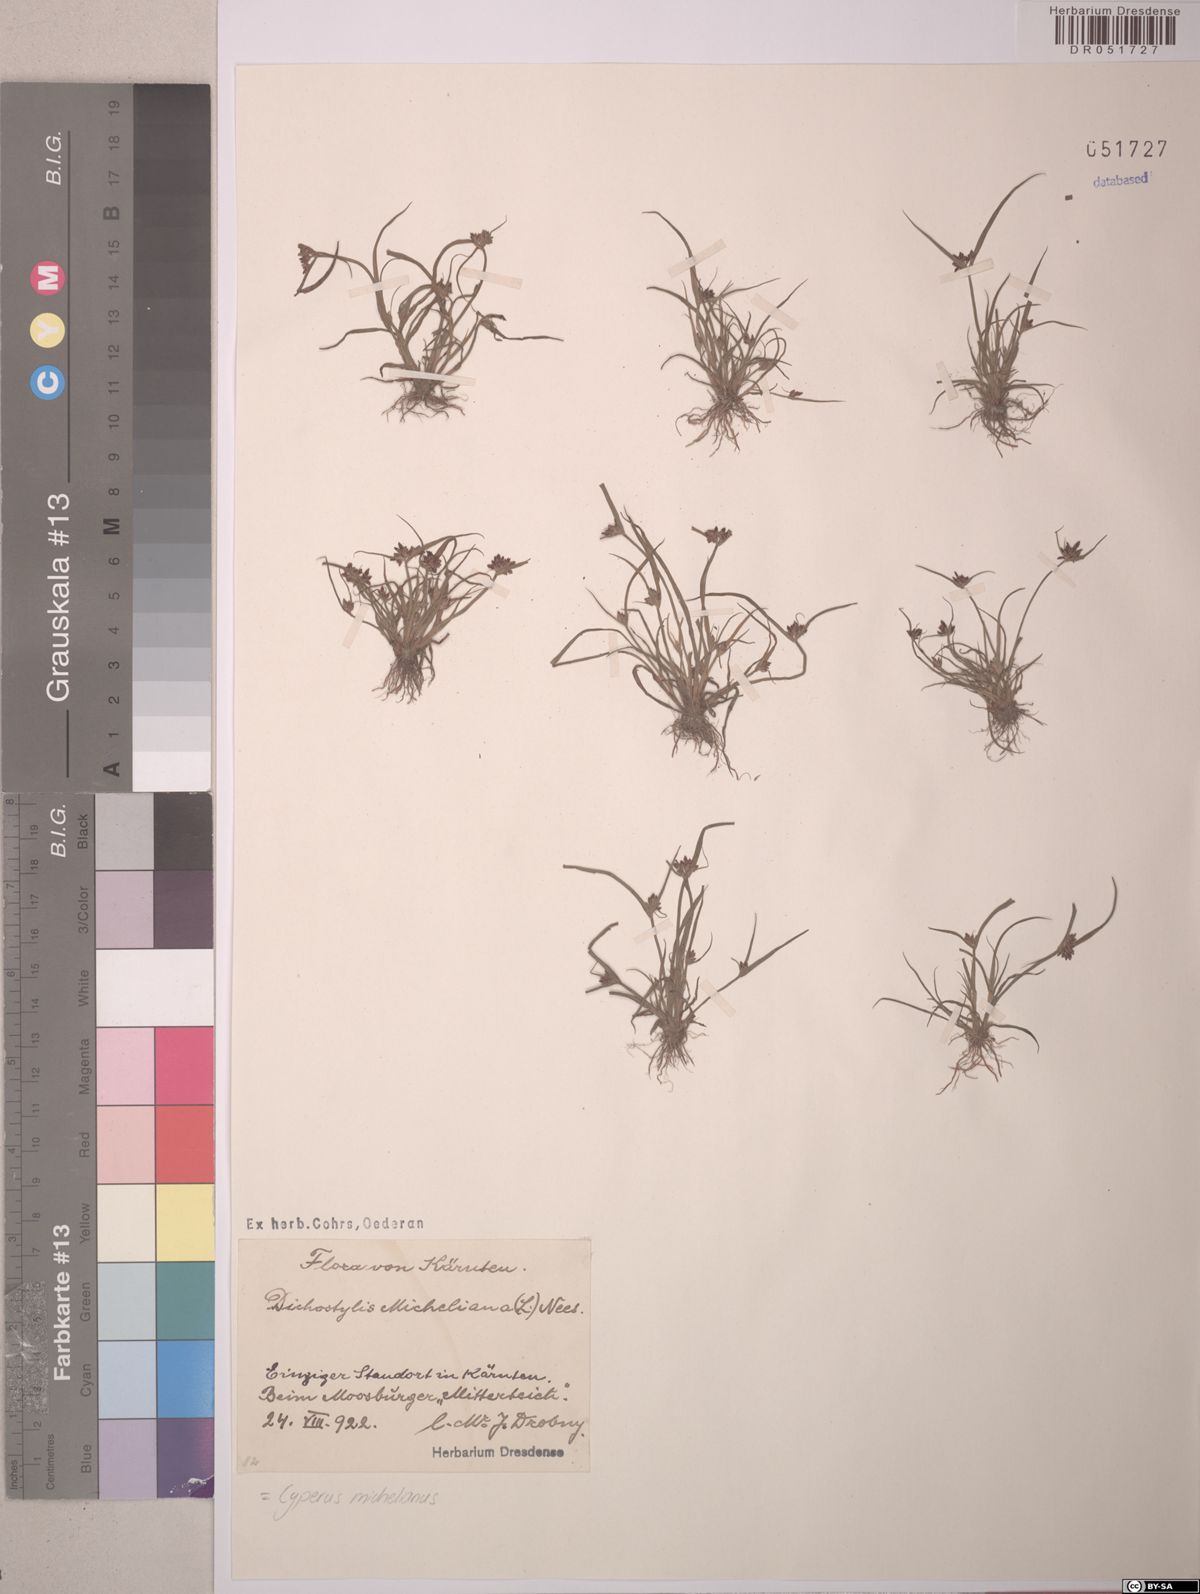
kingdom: Plantae
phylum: Tracheophyta
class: Liliopsida
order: Poales
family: Cyperaceae
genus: Cyperus
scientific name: Cyperus michelianus
